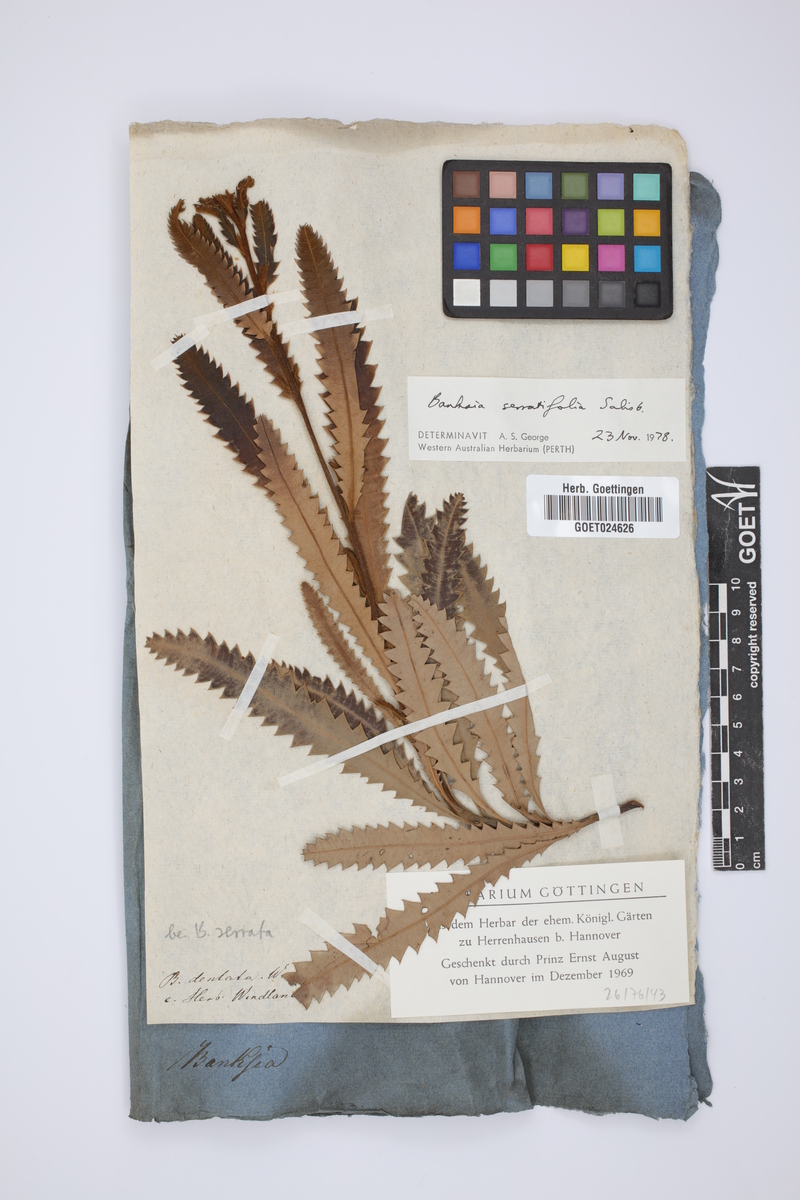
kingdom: Plantae
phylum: Tracheophyta
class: Magnoliopsida
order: Proteales
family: Proteaceae
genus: Banksia
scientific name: Banksia
